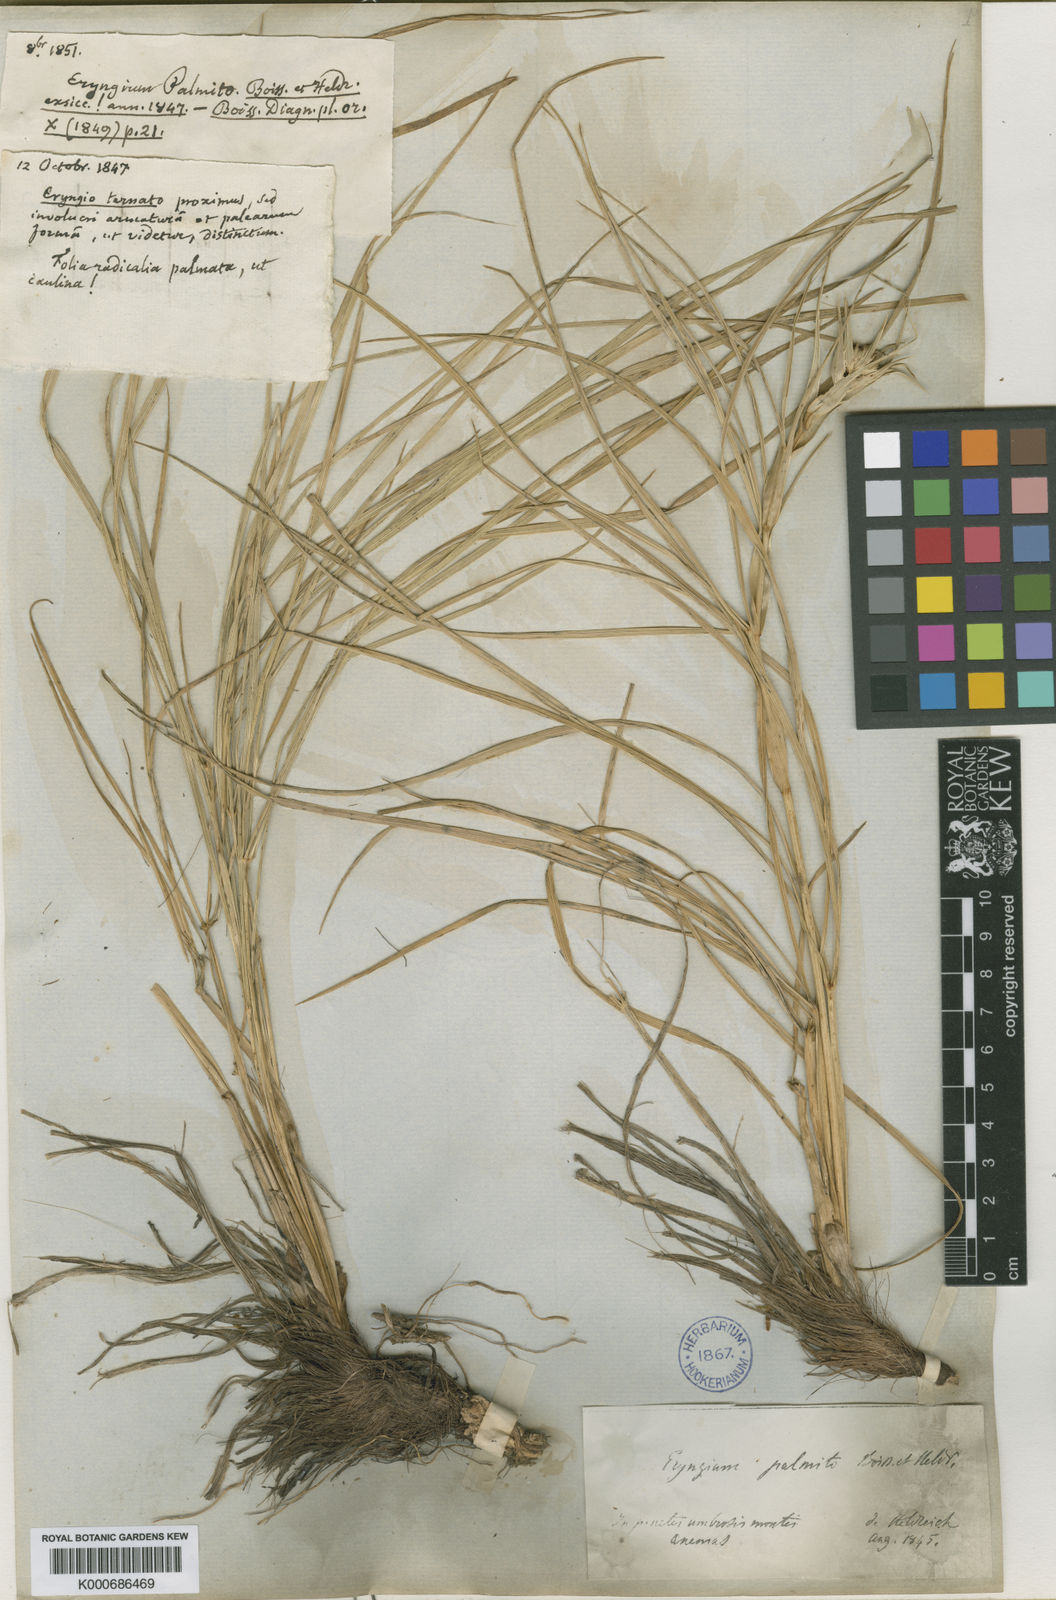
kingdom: Plantae
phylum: Tracheophyta
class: Magnoliopsida
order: Apiales
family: Apiaceae
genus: Eryngium
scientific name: Eryngium palmito
